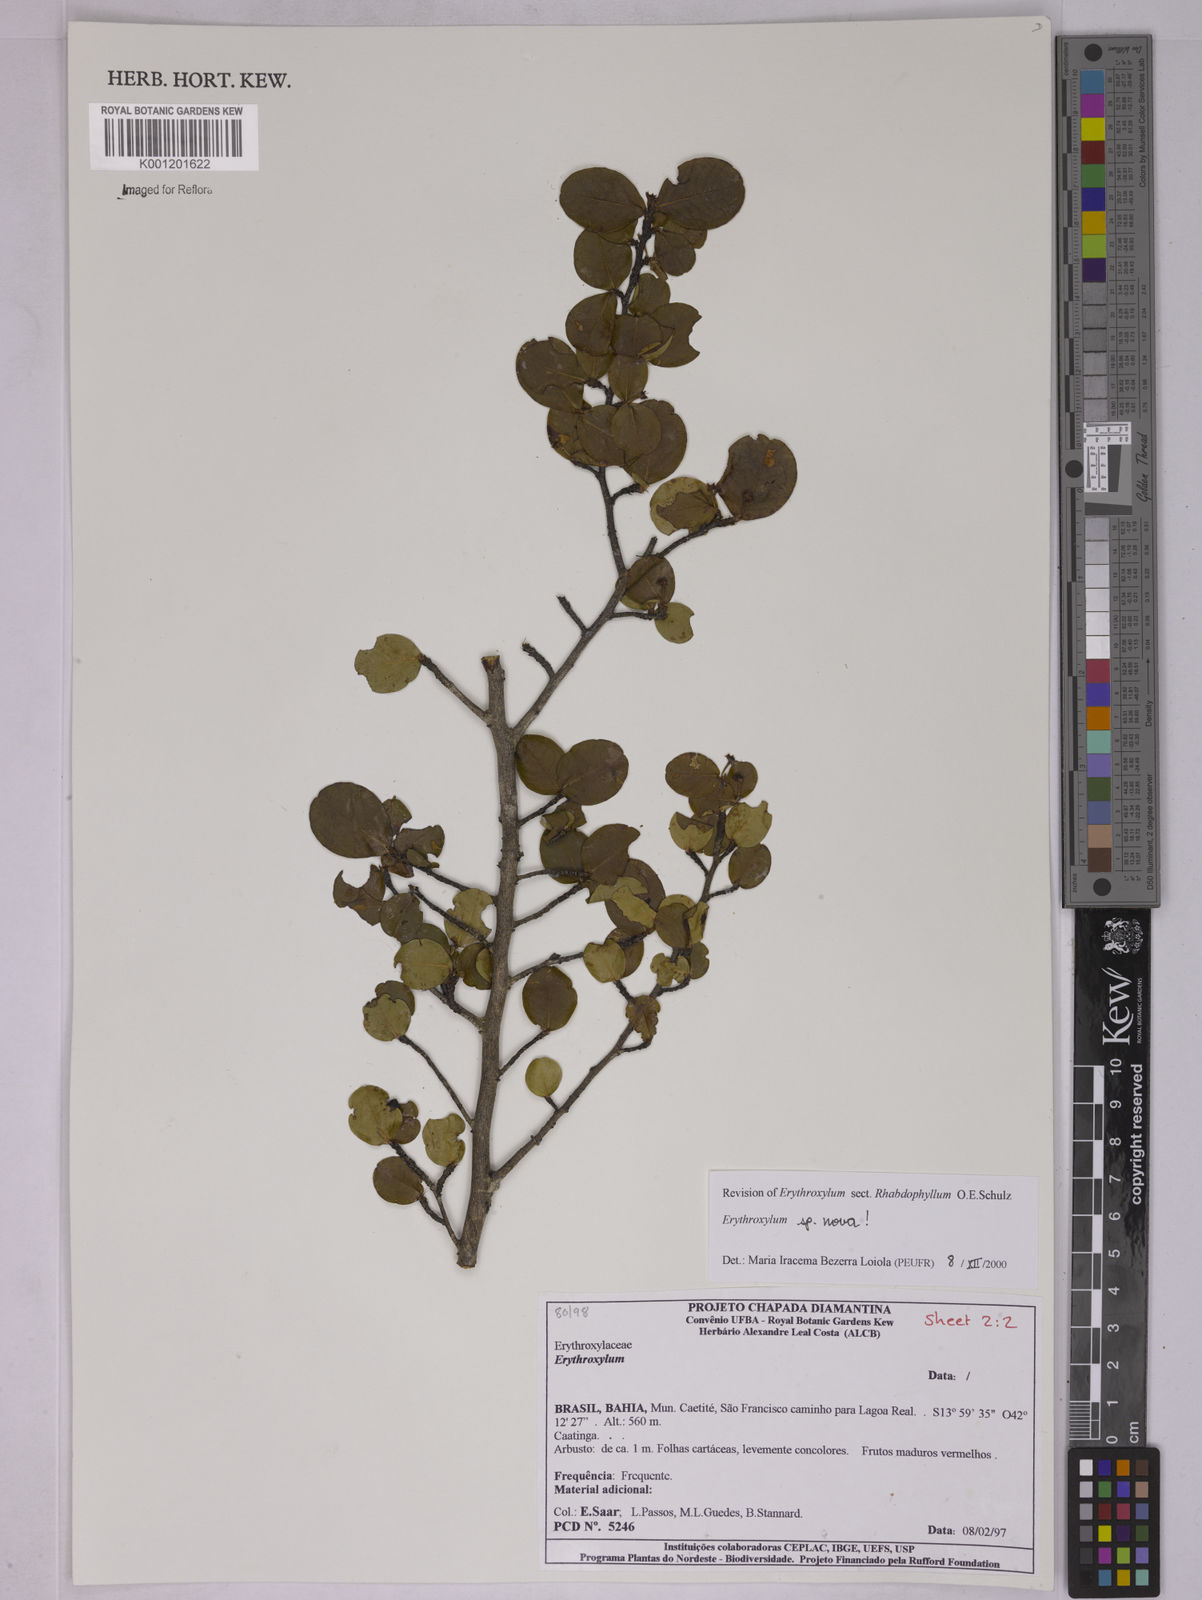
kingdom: Plantae
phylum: Tracheophyta
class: Magnoliopsida
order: Malpighiales
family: Erythroxylaceae
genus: Erythroxylum
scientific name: Erythroxylum
